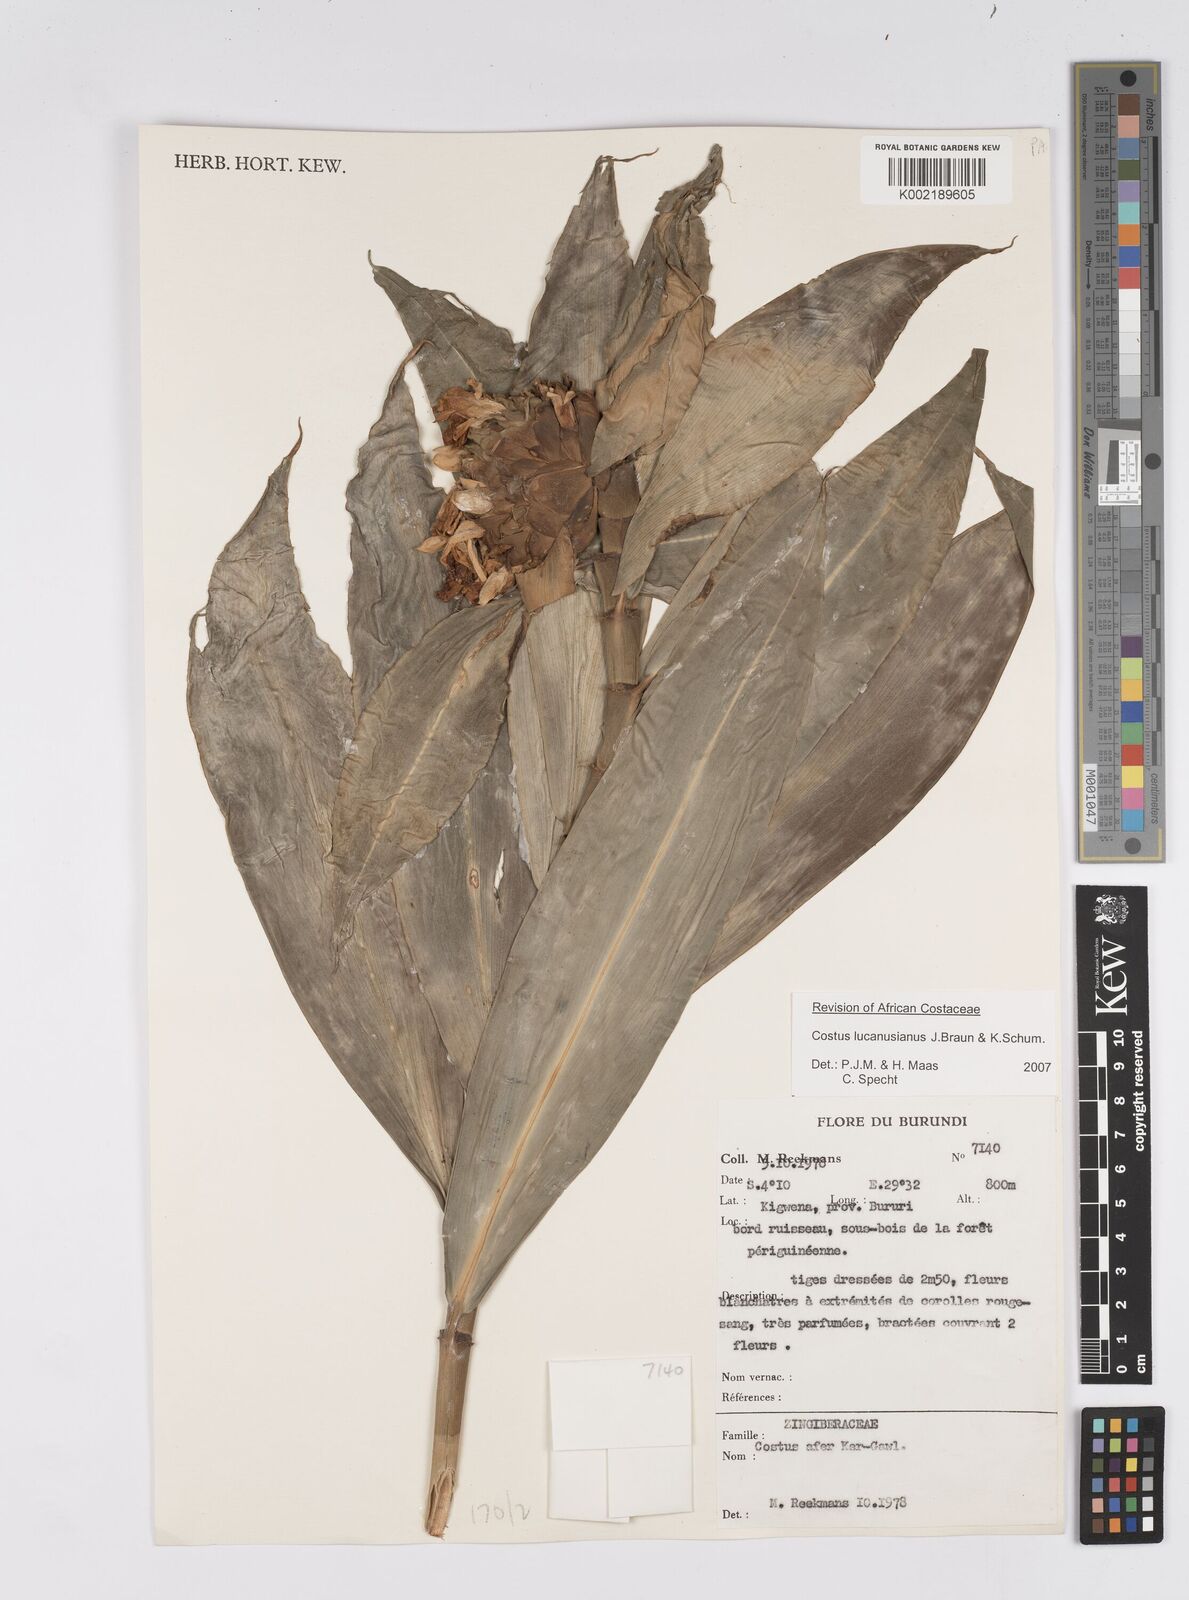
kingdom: Plantae
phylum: Tracheophyta
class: Liliopsida
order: Zingiberales
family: Costaceae
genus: Costus
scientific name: Costus lucanusianus
